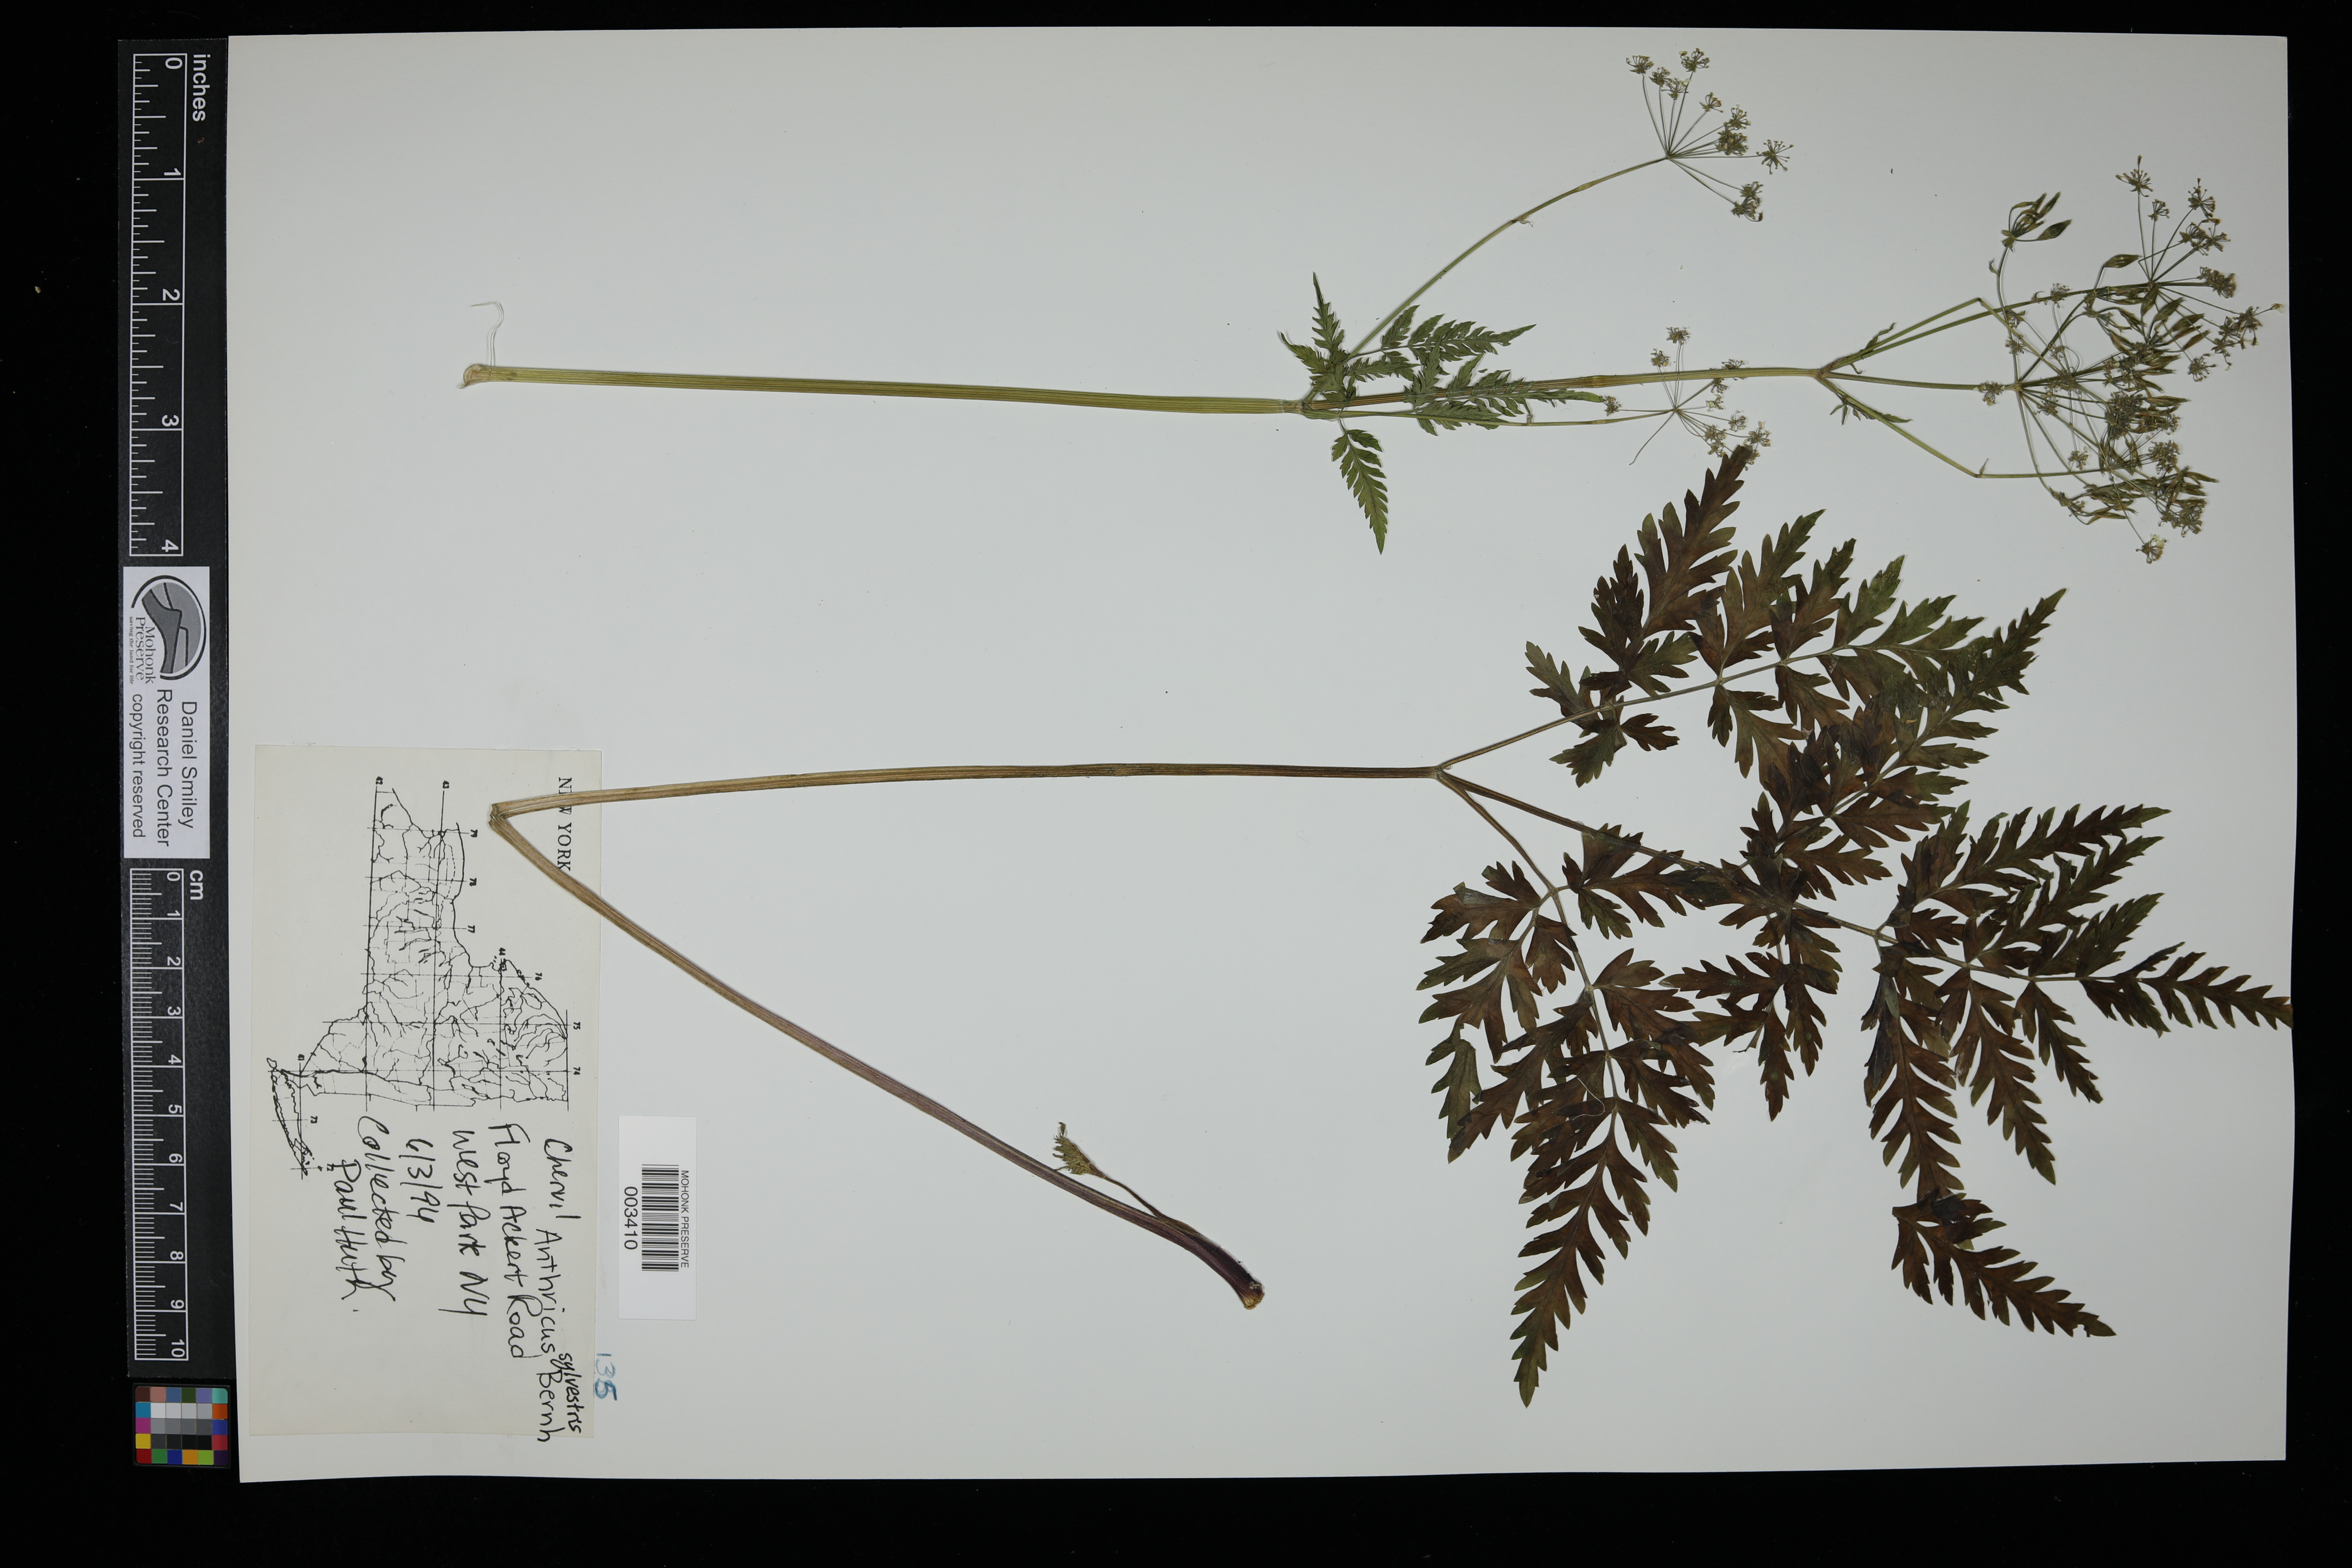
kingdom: Plantae
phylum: Tracheophyta
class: Magnoliopsida
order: Apiales
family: Apiaceae
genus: Anthriscus
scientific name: Anthriscus sylvestris
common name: Cow parsley
